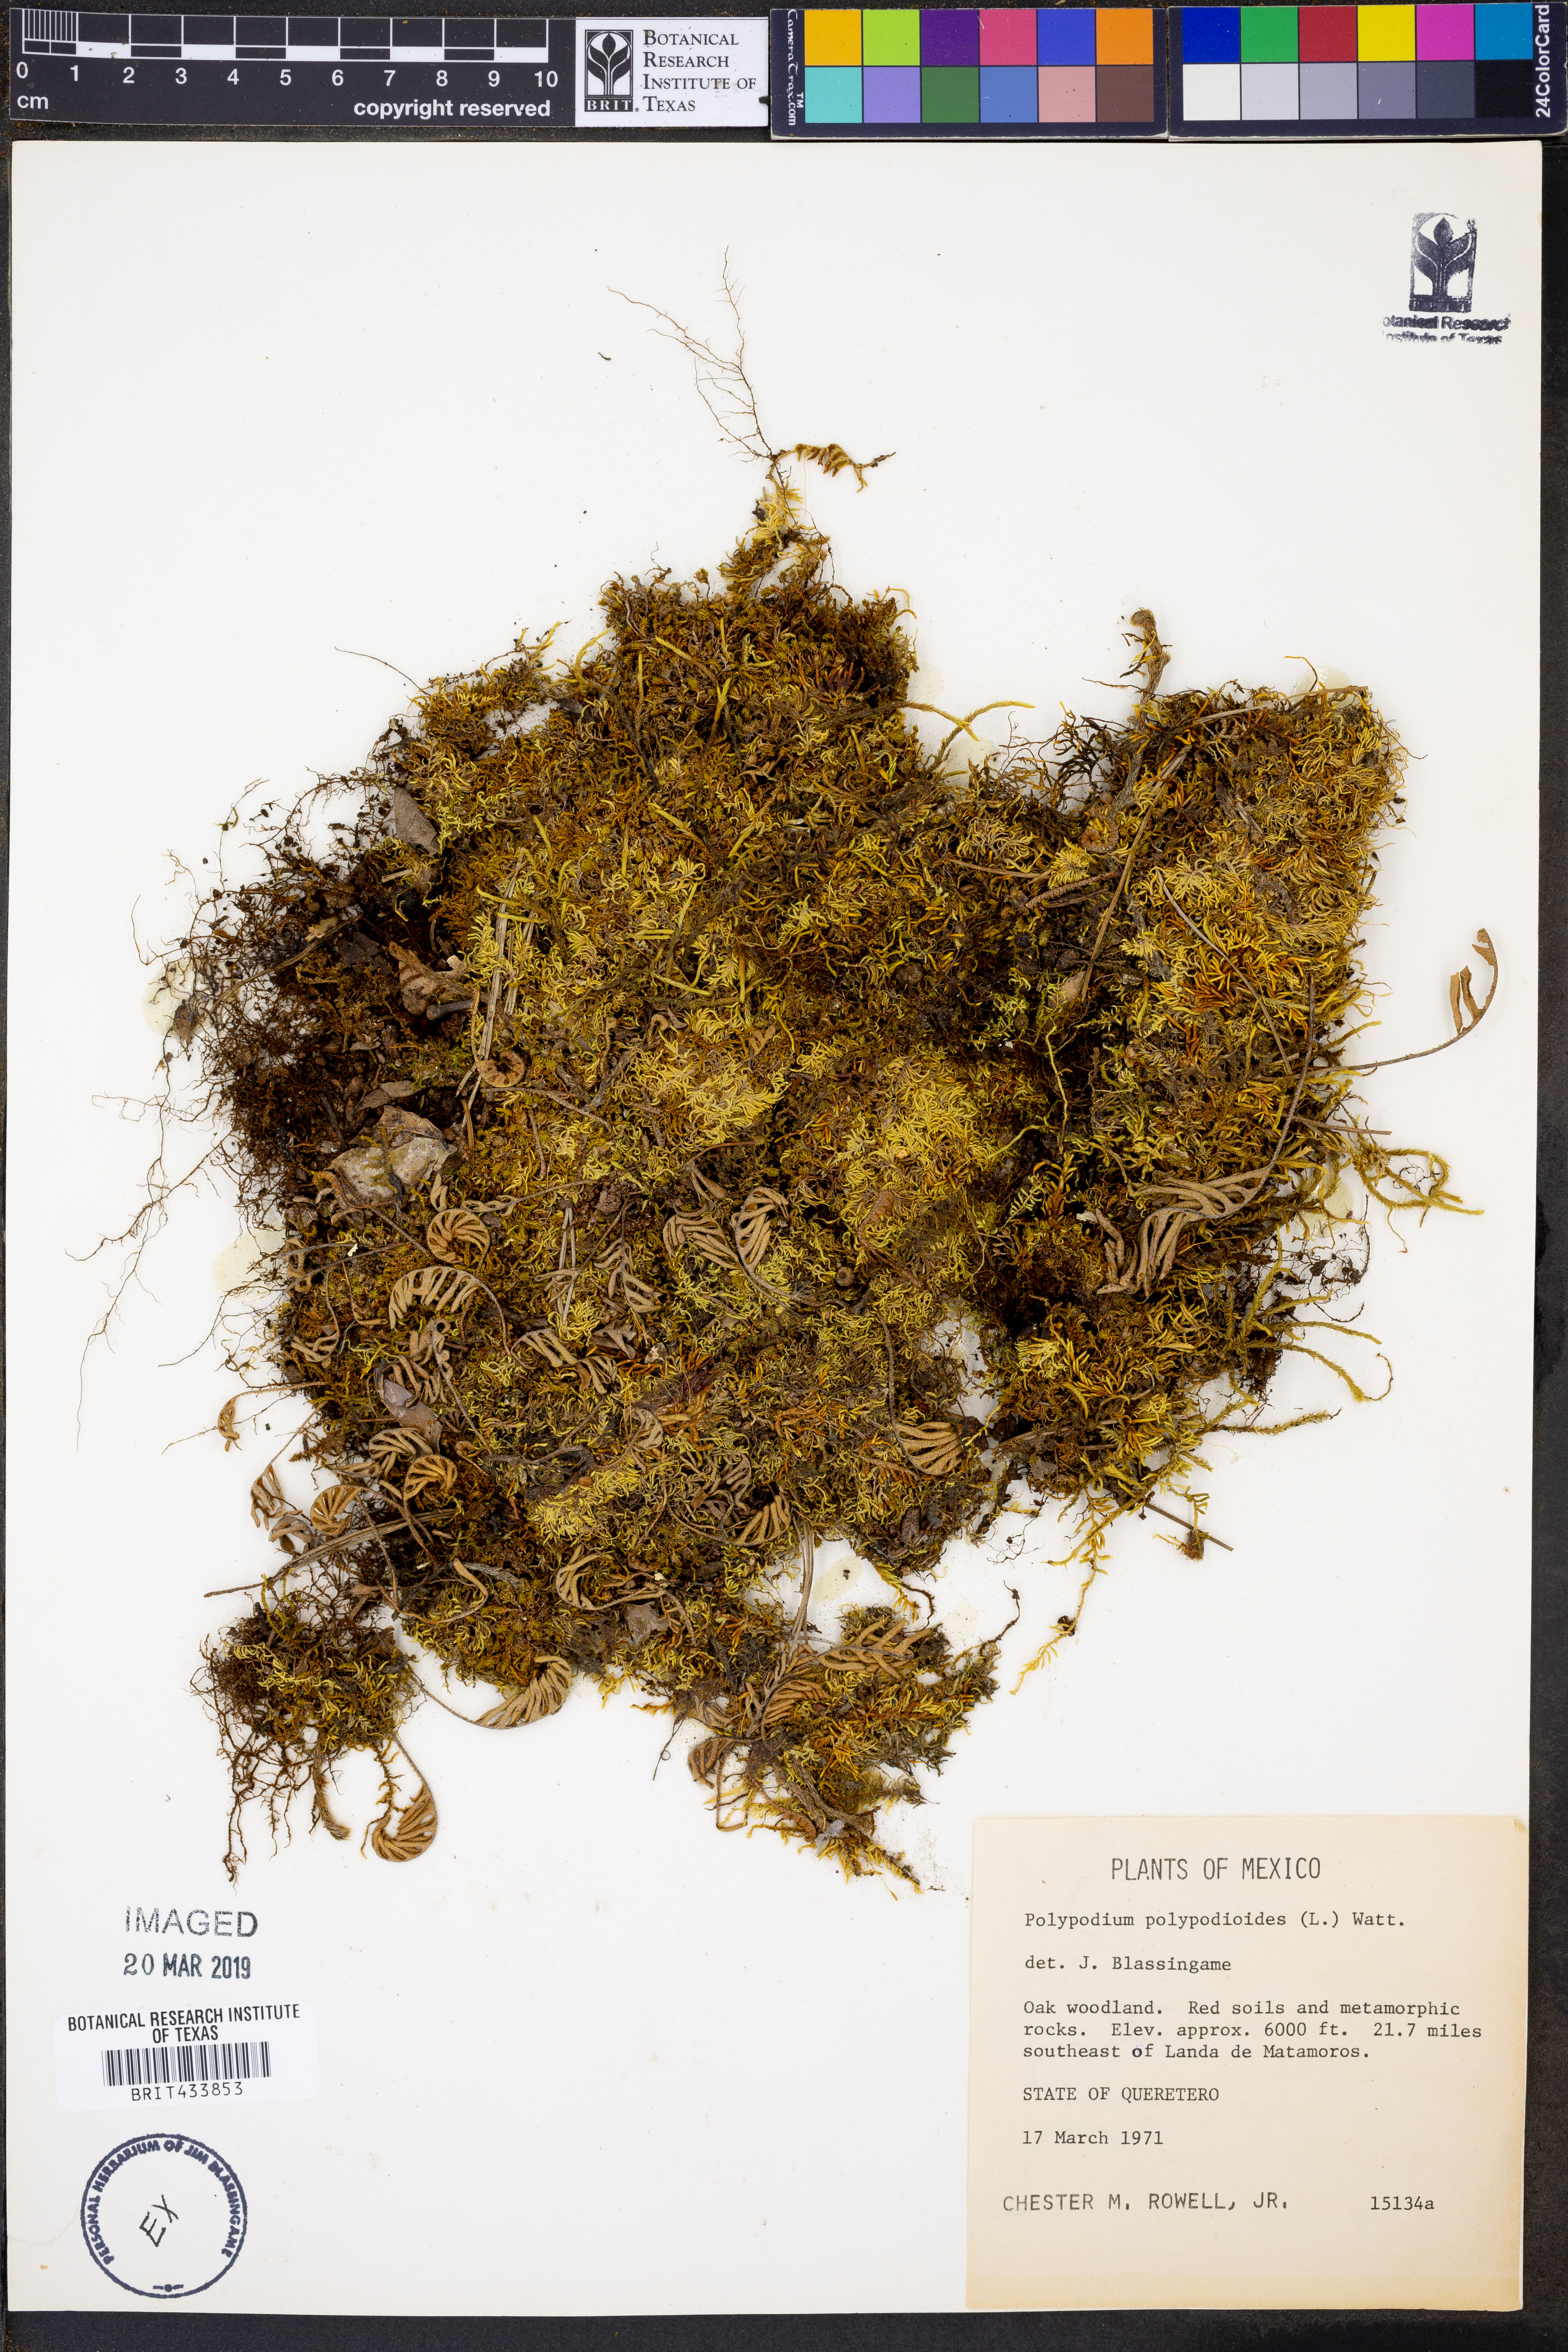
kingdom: Plantae
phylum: Tracheophyta
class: Polypodiopsida
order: Polypodiales
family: Polypodiaceae
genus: Pleopeltis
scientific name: Pleopeltis polypodioides
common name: Resurrection fern
